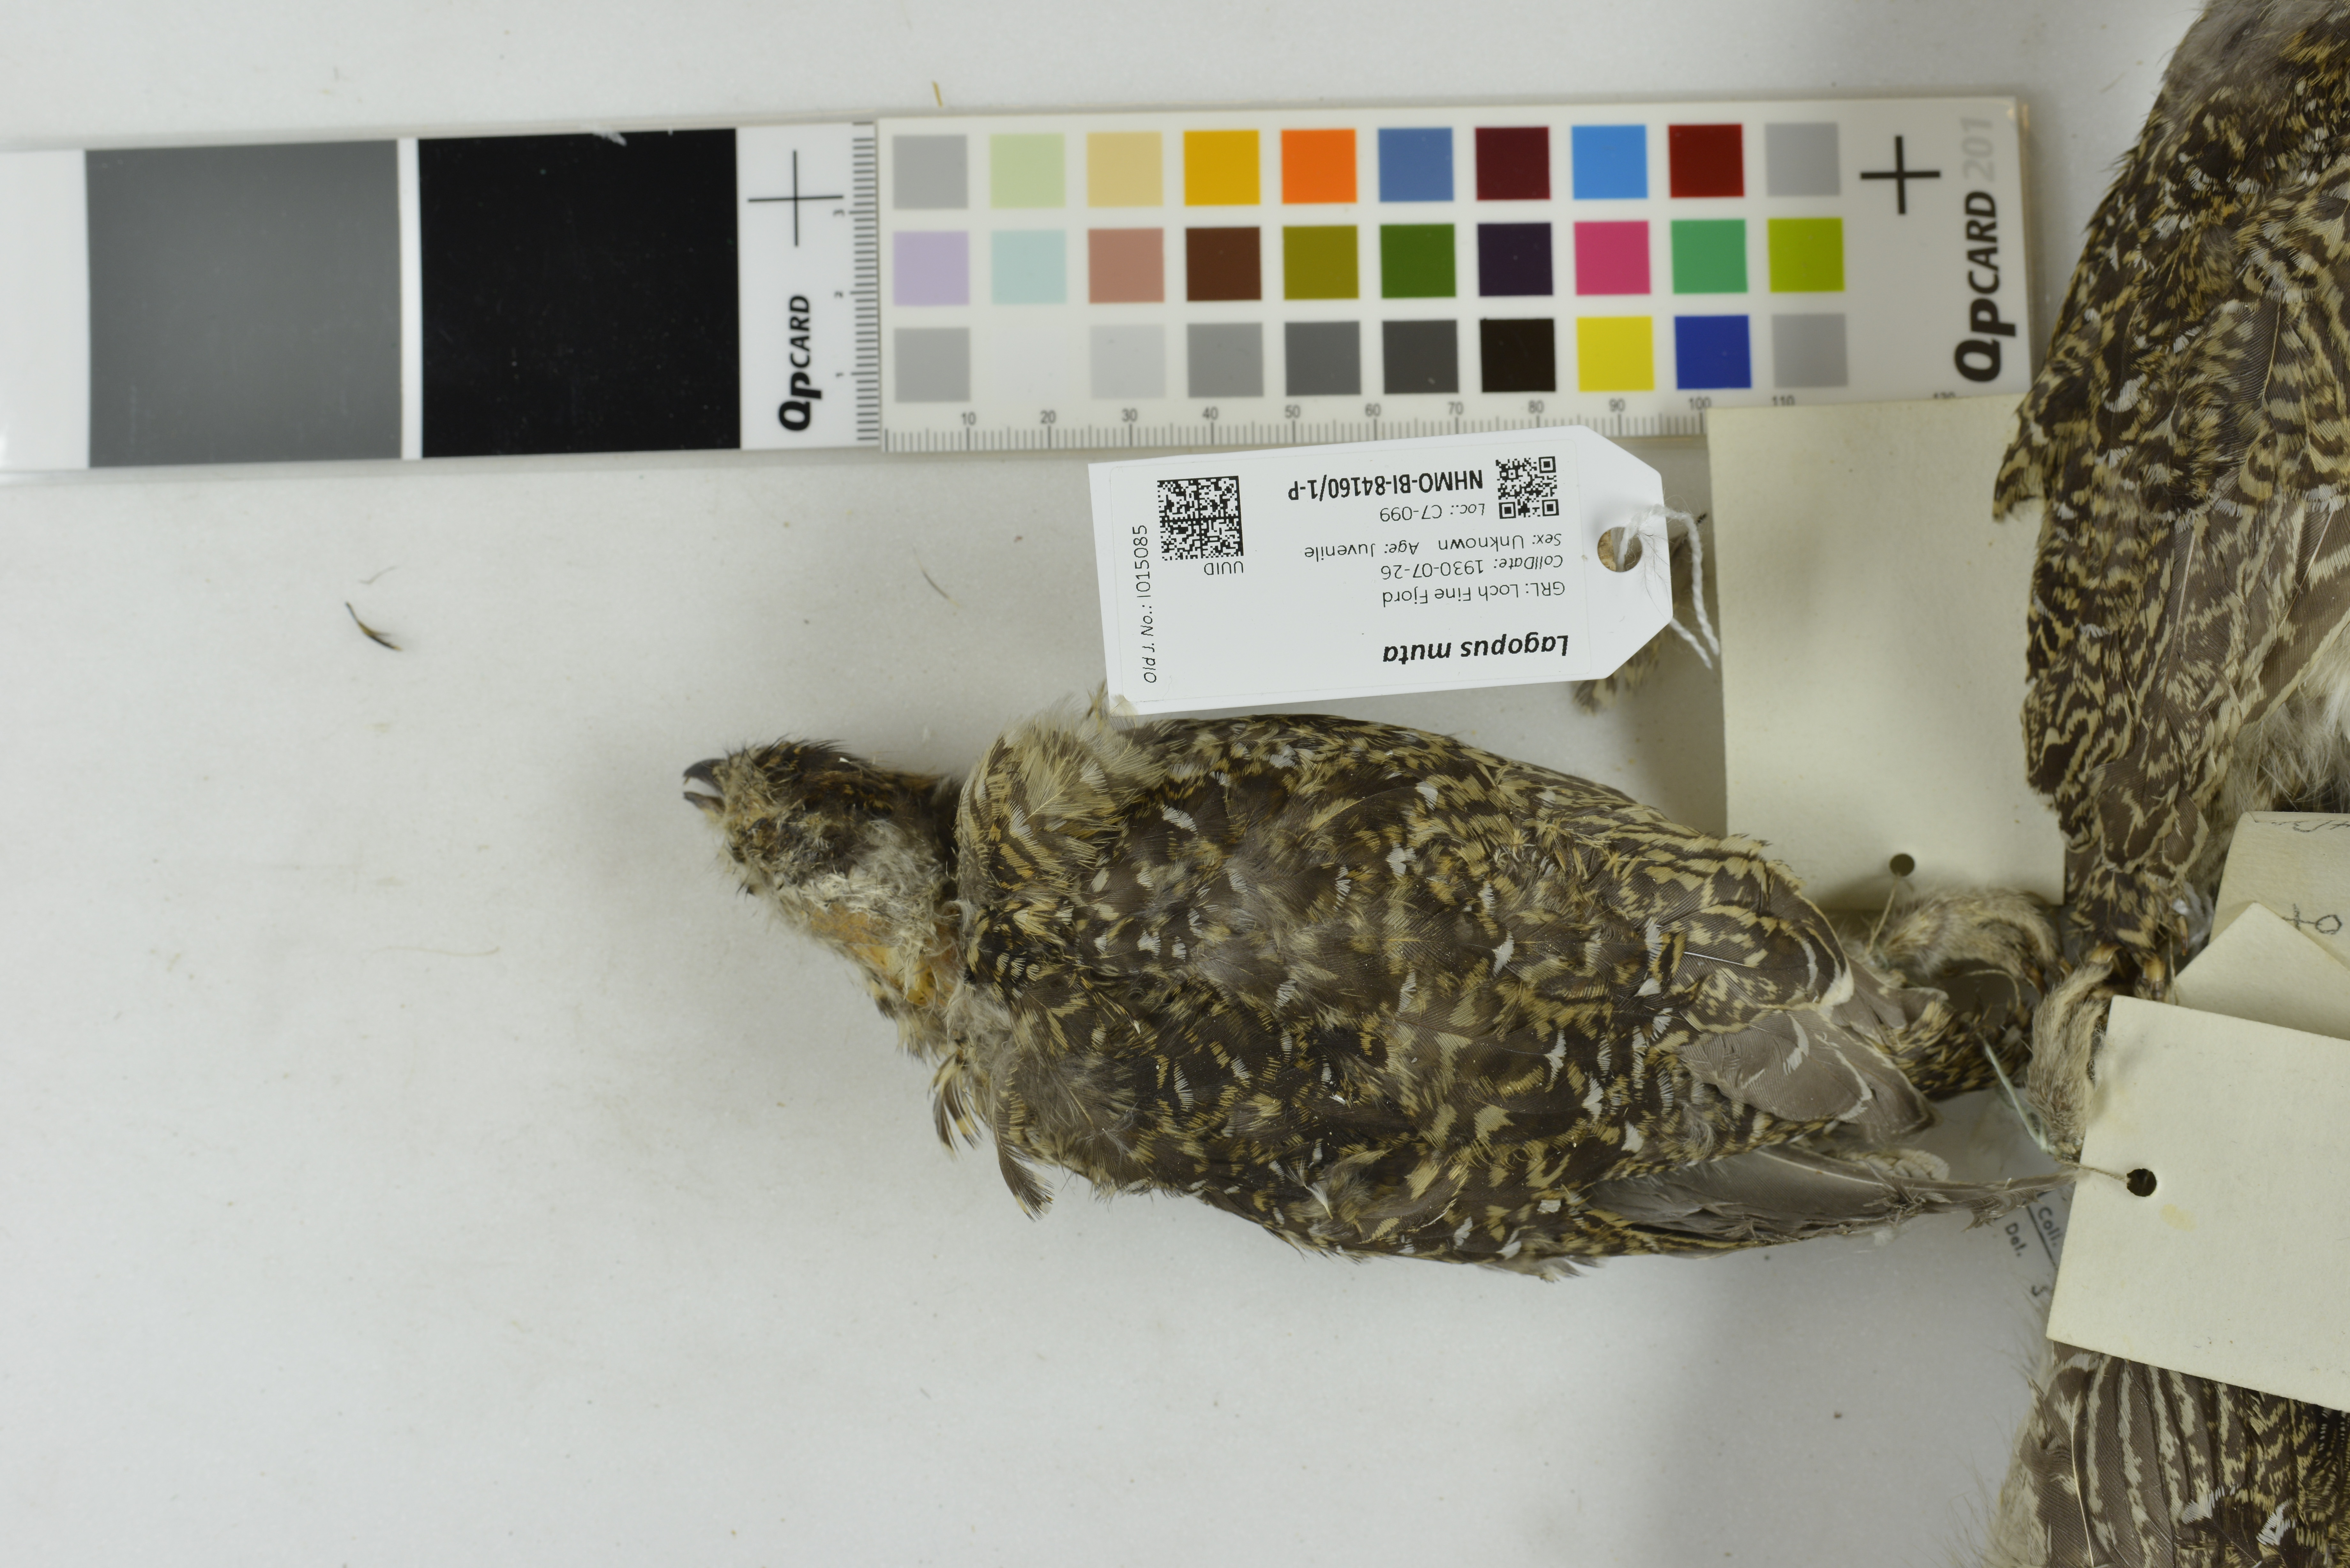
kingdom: Animalia
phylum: Chordata
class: Aves
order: Galliformes
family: Phasianidae
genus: Lagopus
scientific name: Lagopus muta
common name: Rock ptarmigan
